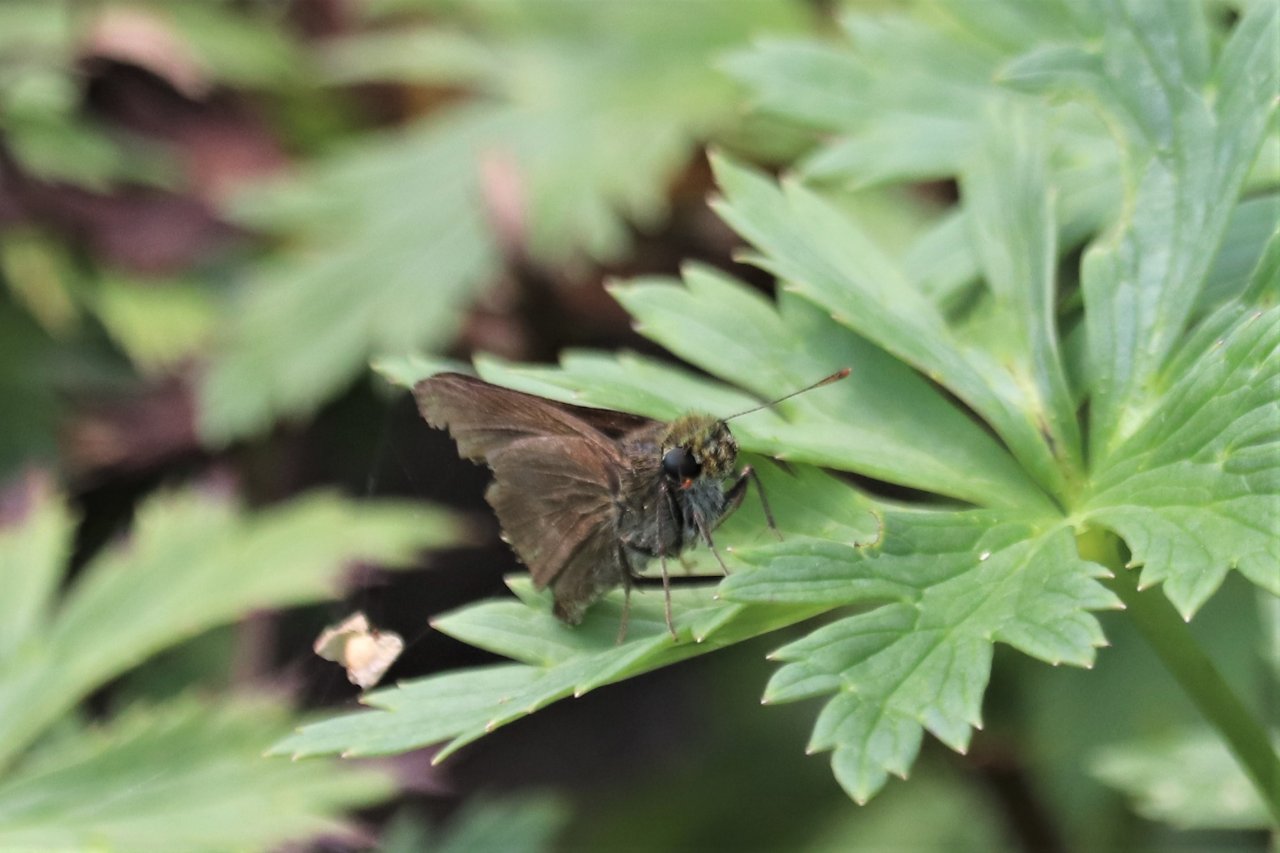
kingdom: Animalia
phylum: Arthropoda
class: Insecta
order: Lepidoptera
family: Hesperiidae
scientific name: Hesperiidae
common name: Skippers
